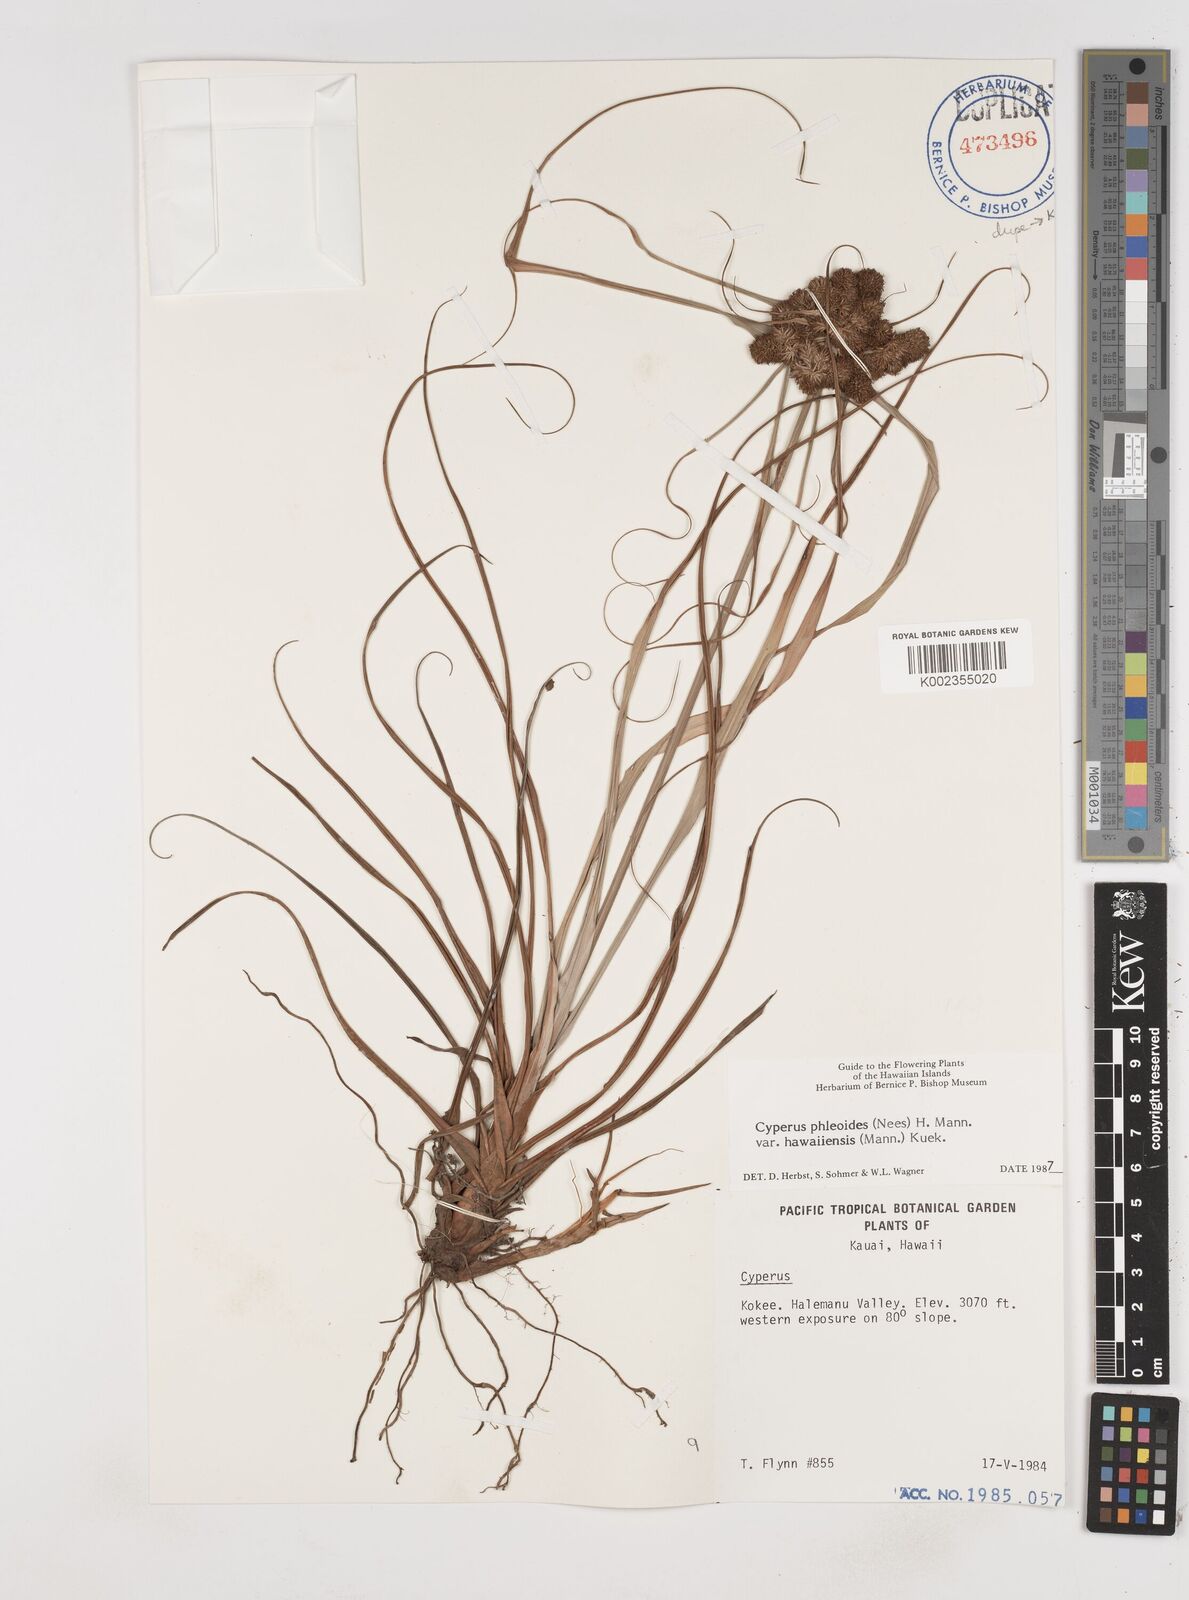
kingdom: Plantae
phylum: Tracheophyta
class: Liliopsida
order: Poales
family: Cyperaceae
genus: Cyperus
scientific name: Cyperus phleoides
